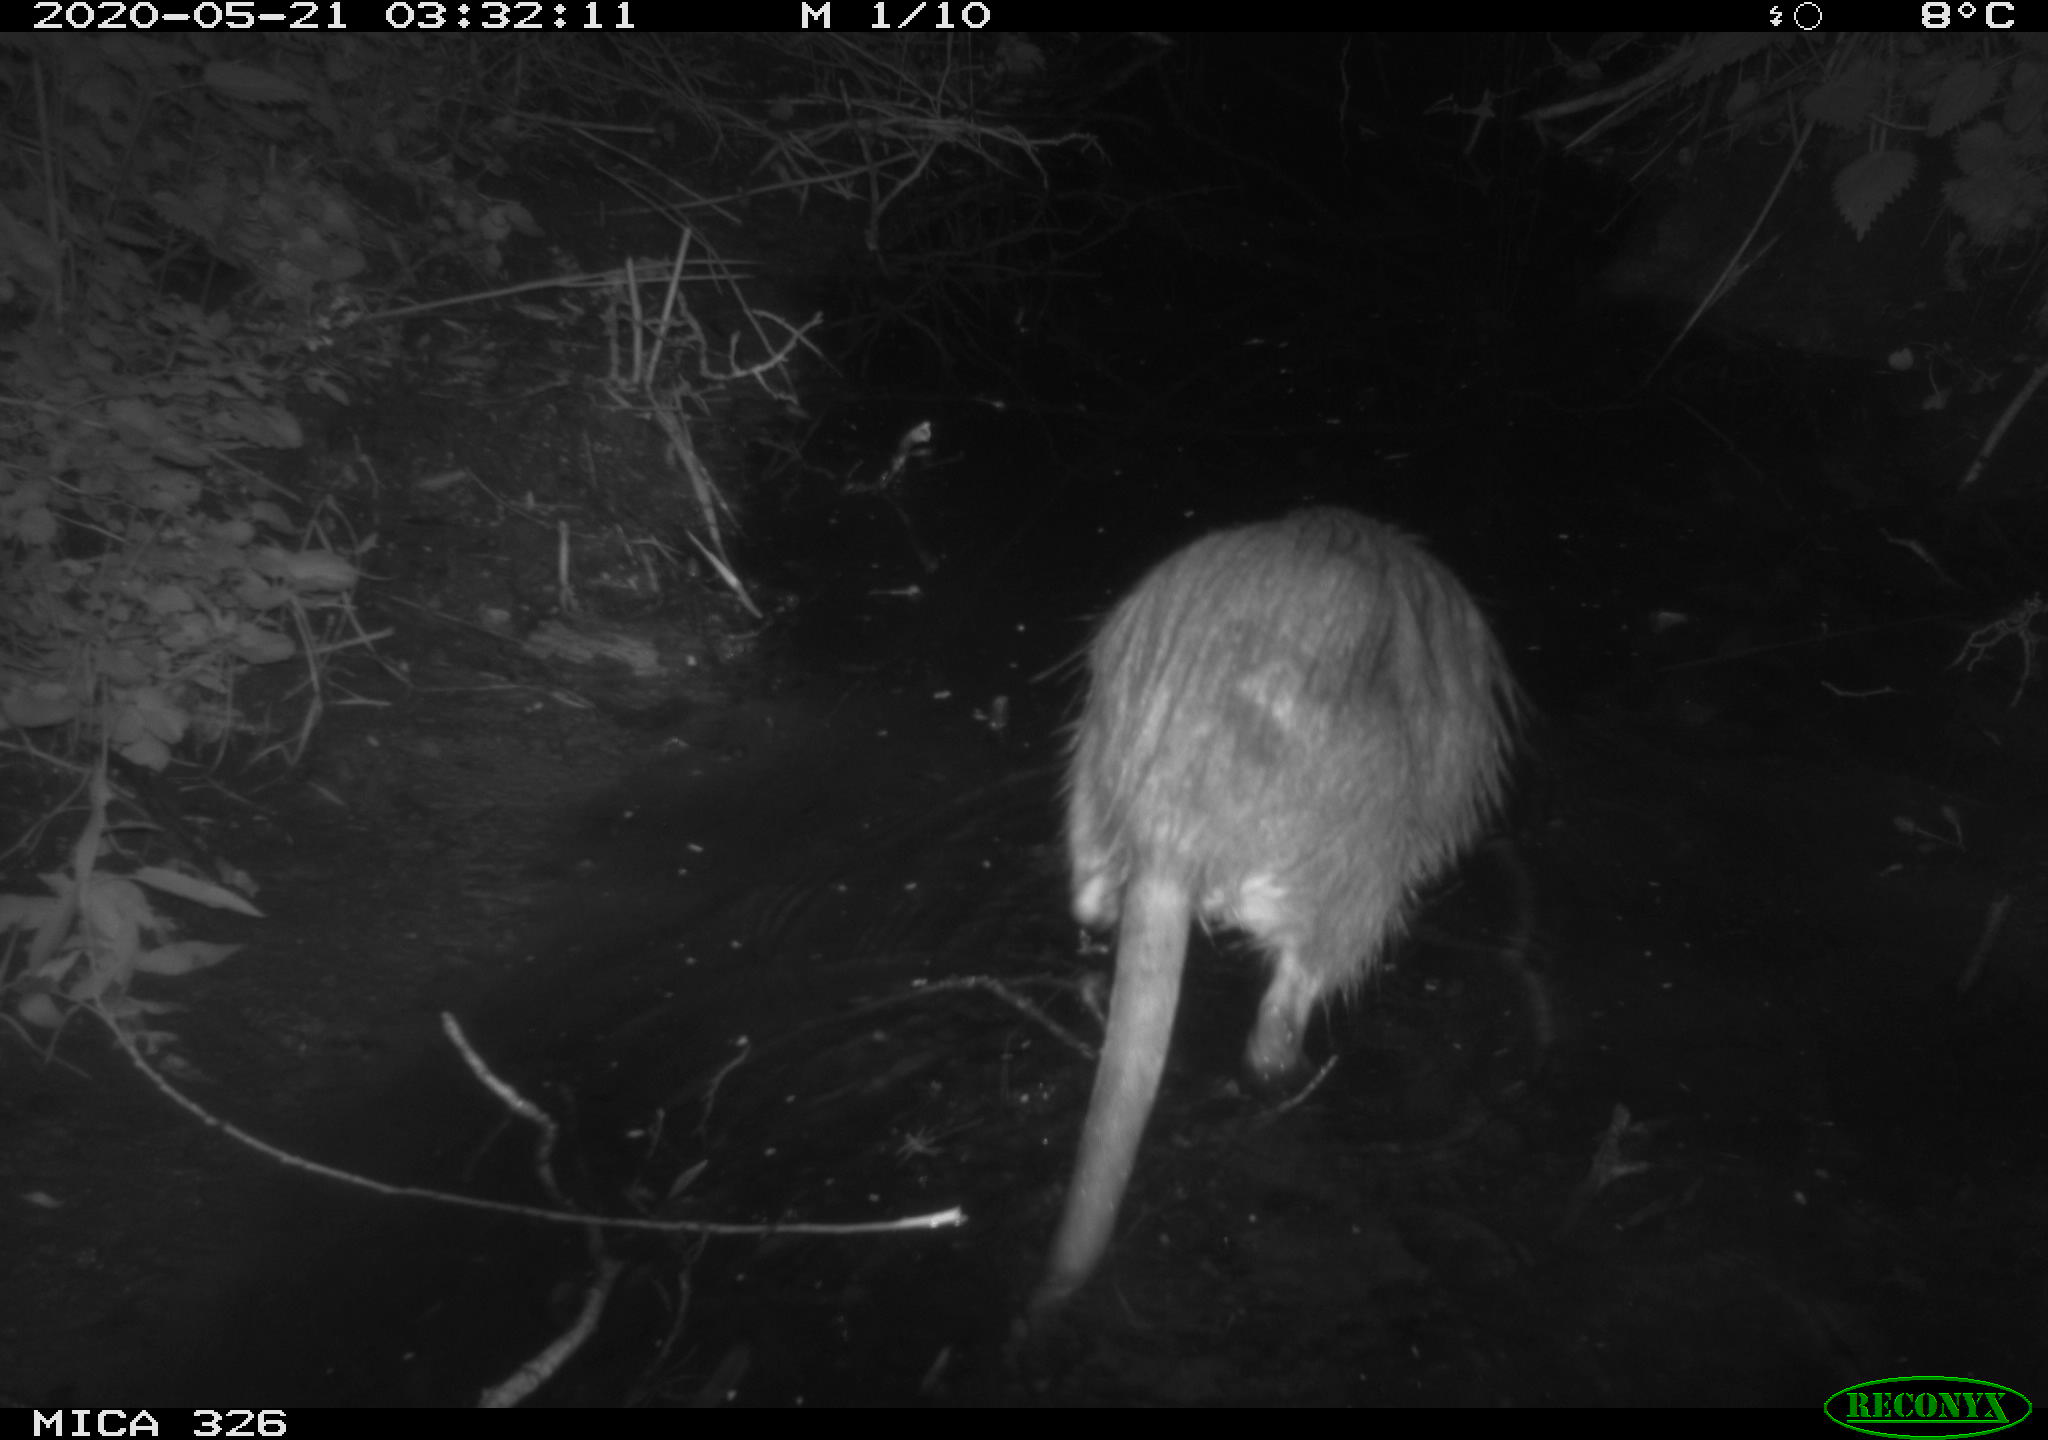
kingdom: Animalia
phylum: Chordata
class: Mammalia
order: Rodentia
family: Myocastoridae
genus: Myocastor
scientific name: Myocastor coypus
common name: Coypu
